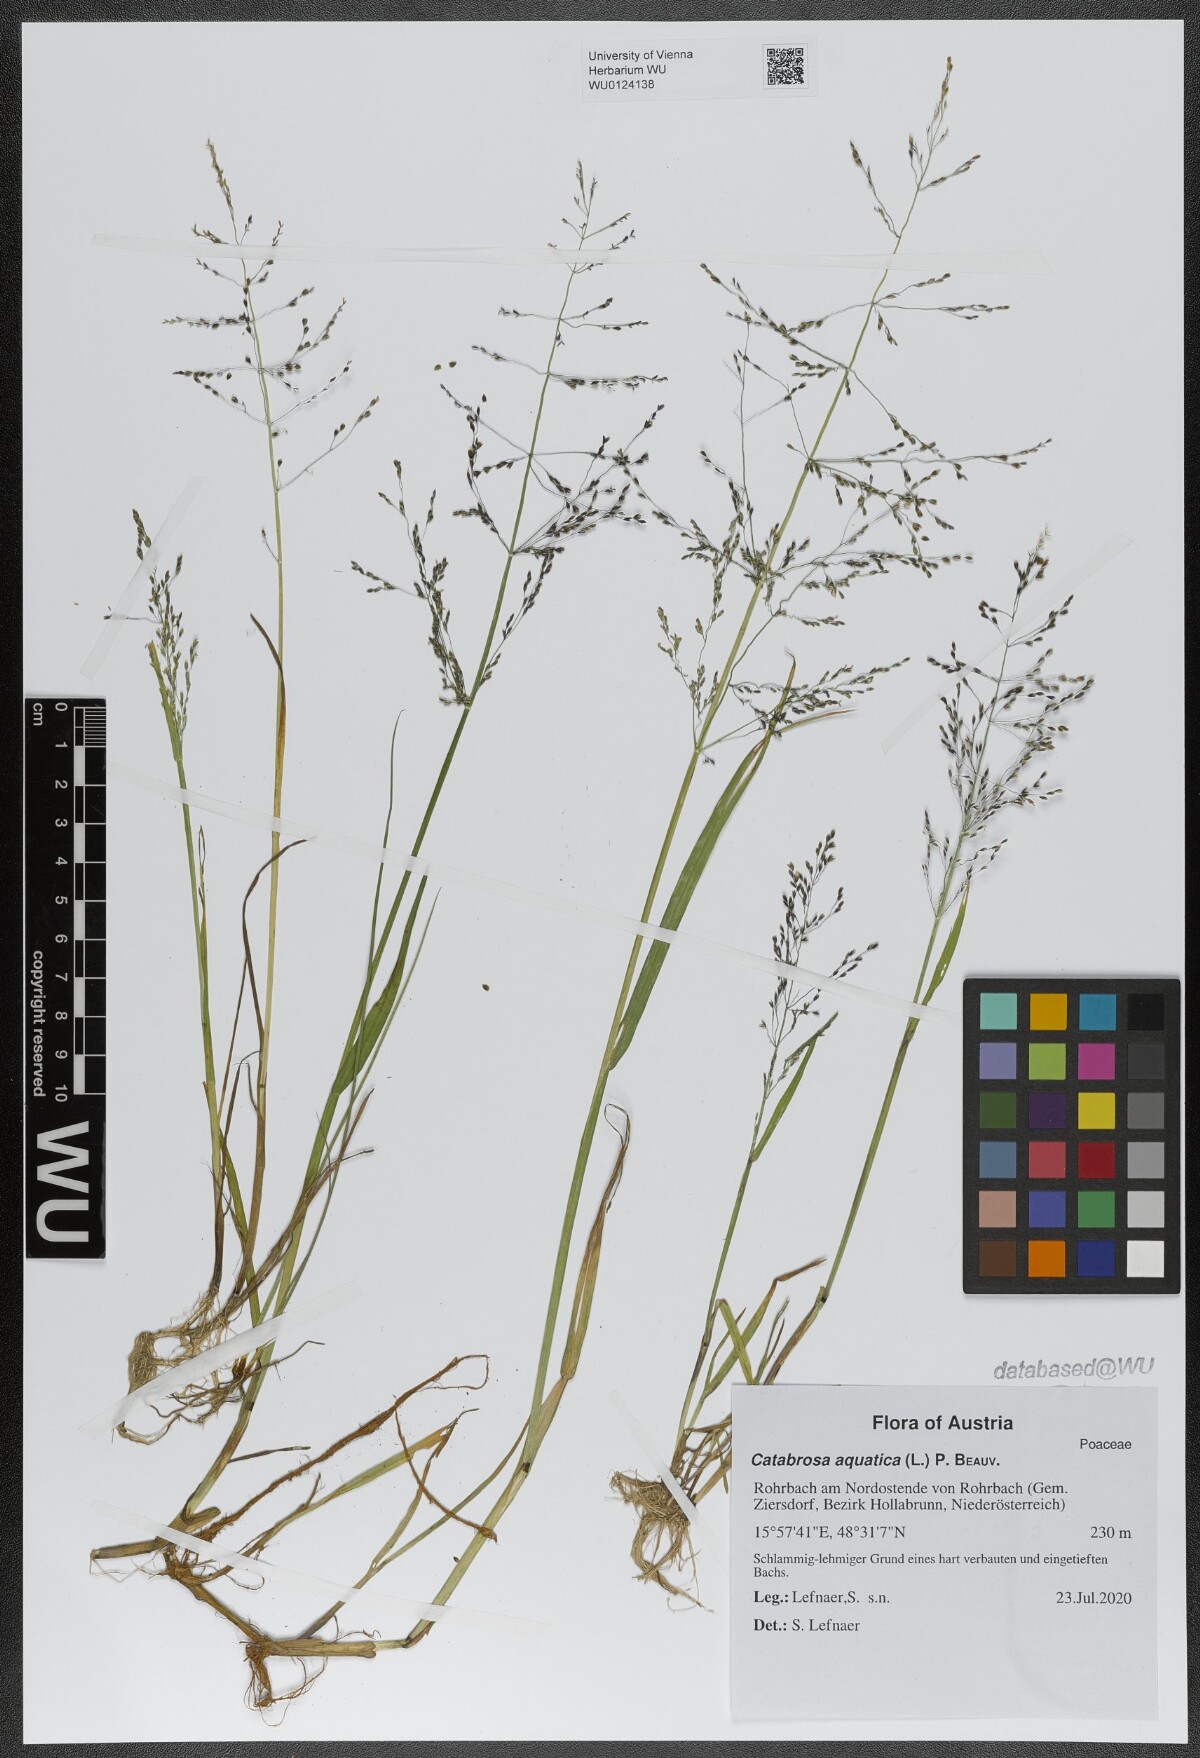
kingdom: Plantae
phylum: Tracheophyta
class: Liliopsida
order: Poales
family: Poaceae
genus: Catabrosa
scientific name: Catabrosa aquatica
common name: Whorl-grass
